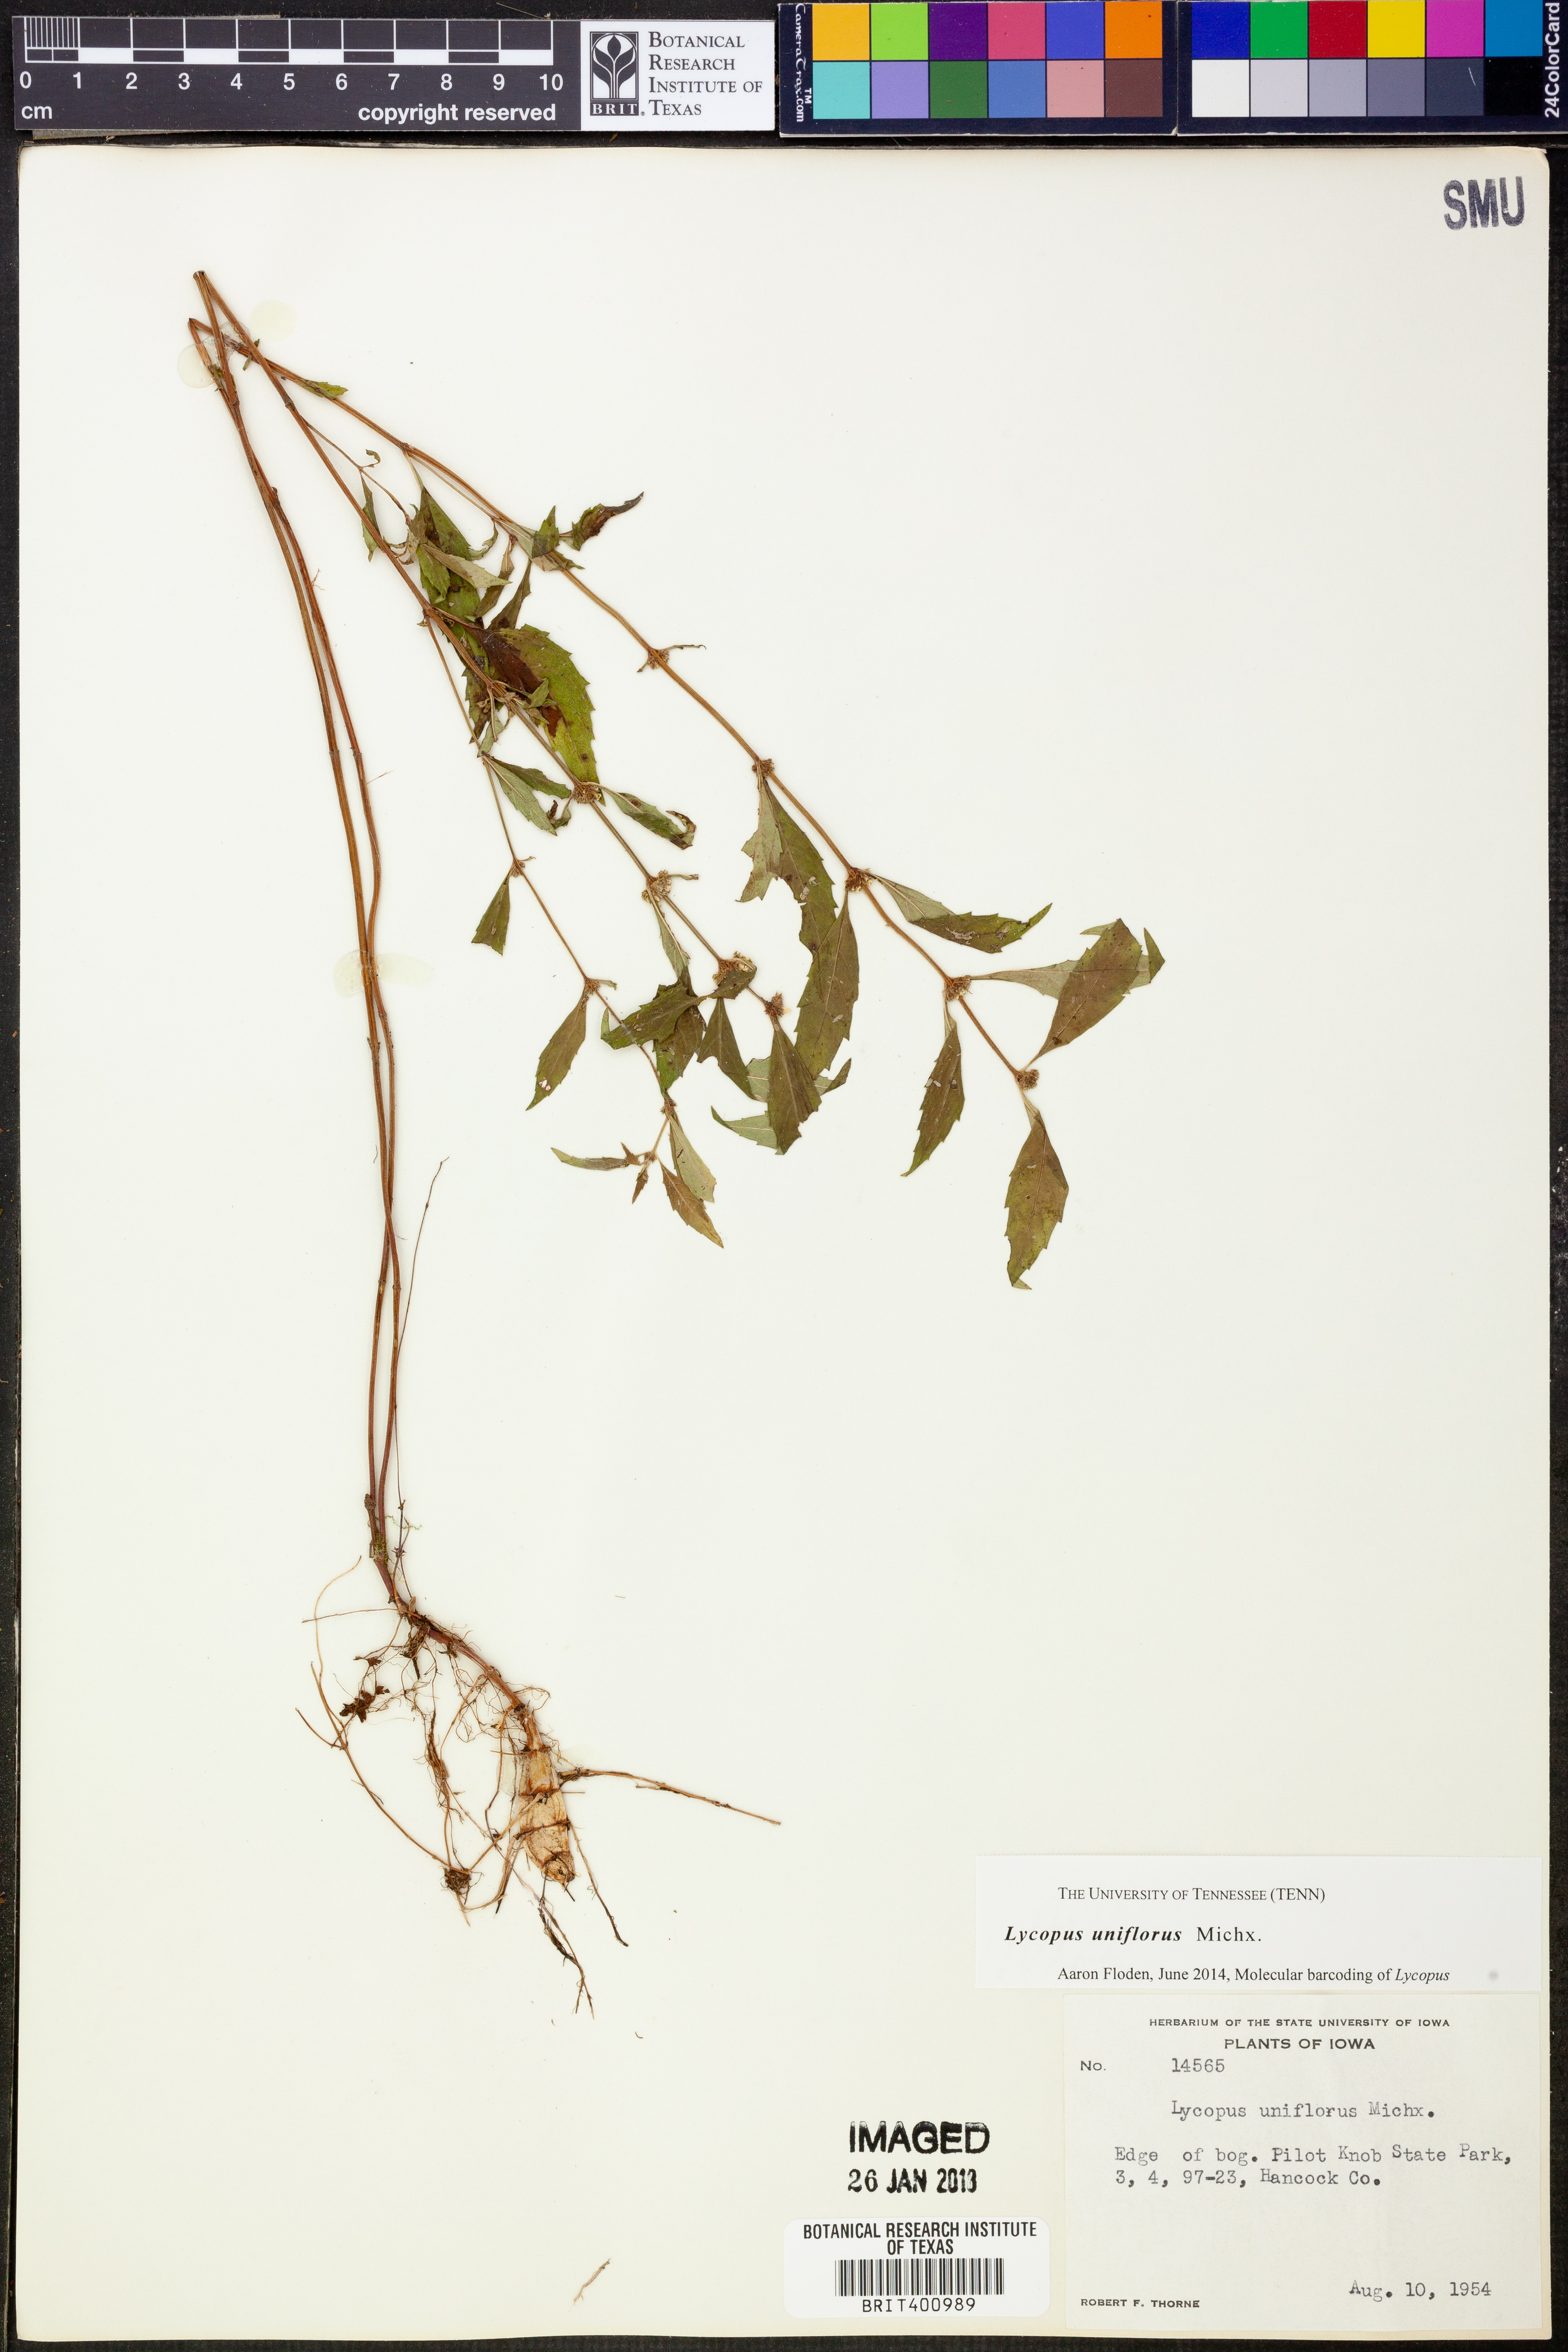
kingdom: Plantae
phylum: Tracheophyta
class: Magnoliopsida
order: Lamiales
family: Lamiaceae
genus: Lycopus
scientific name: Lycopus uniflorus
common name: Northern bugleweed
